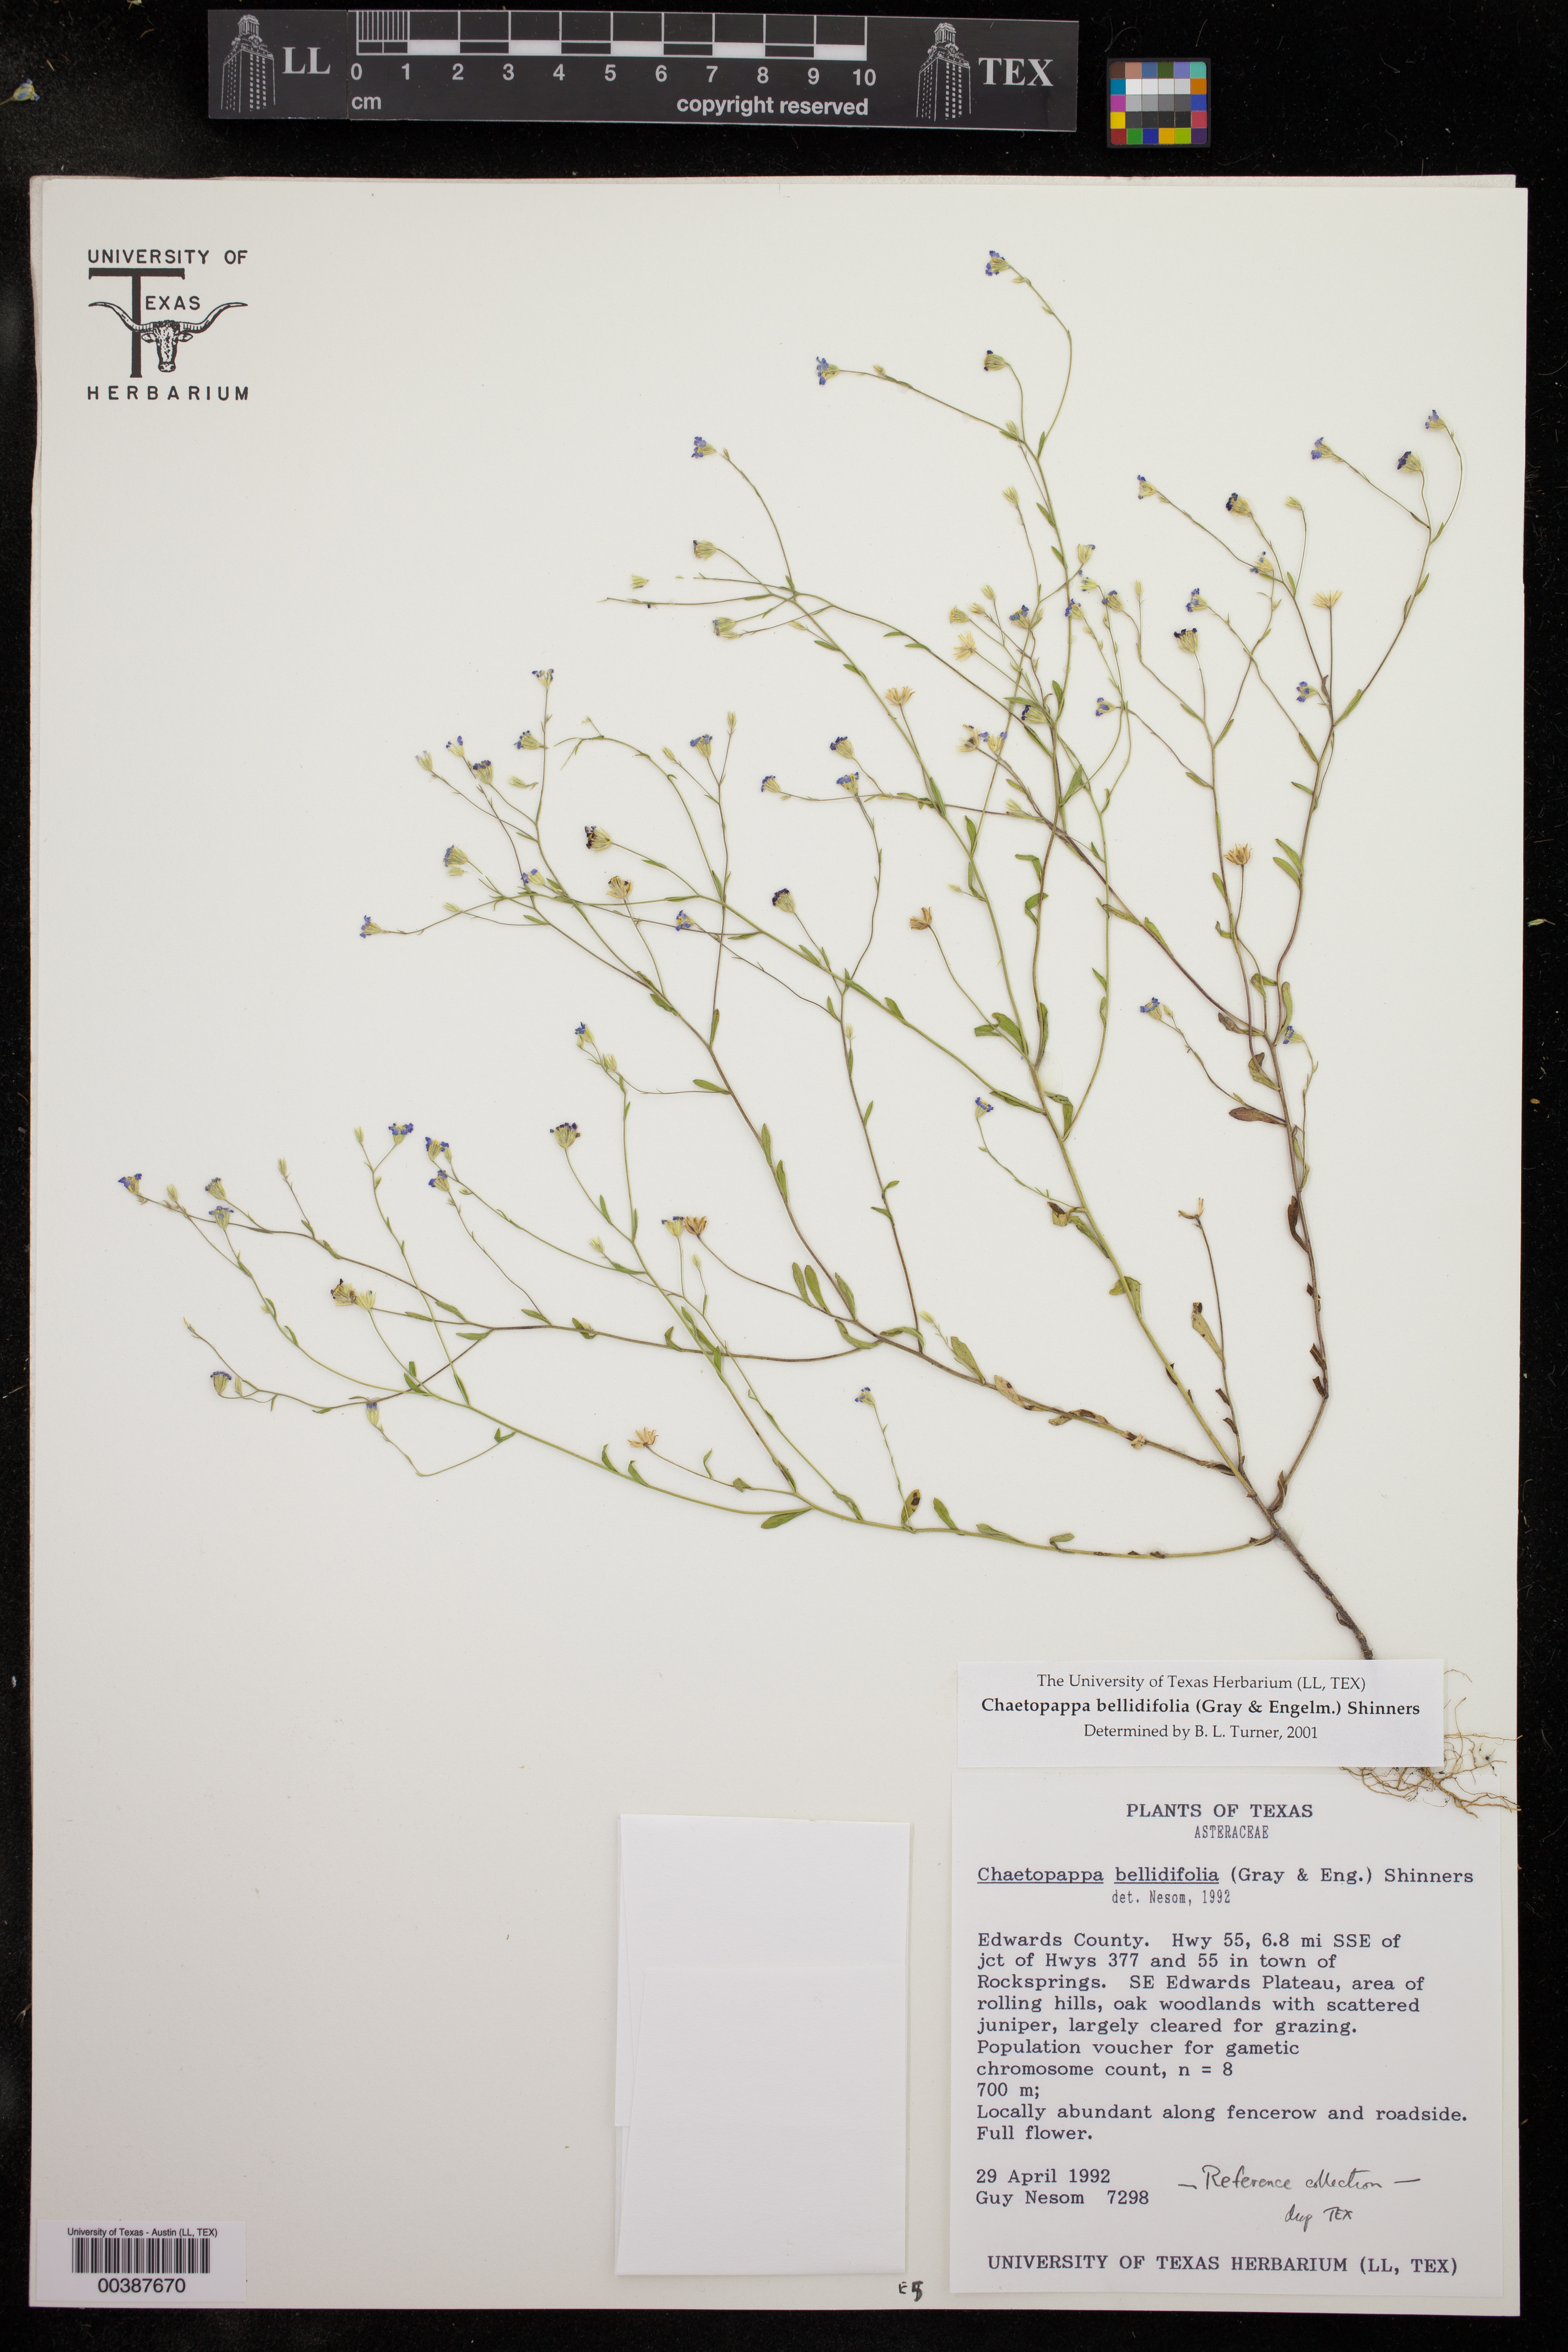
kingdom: Plantae
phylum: Tracheophyta
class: Magnoliopsida
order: Asterales
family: Asteraceae
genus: Chaetopappa
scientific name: Chaetopappa bellidifolia
